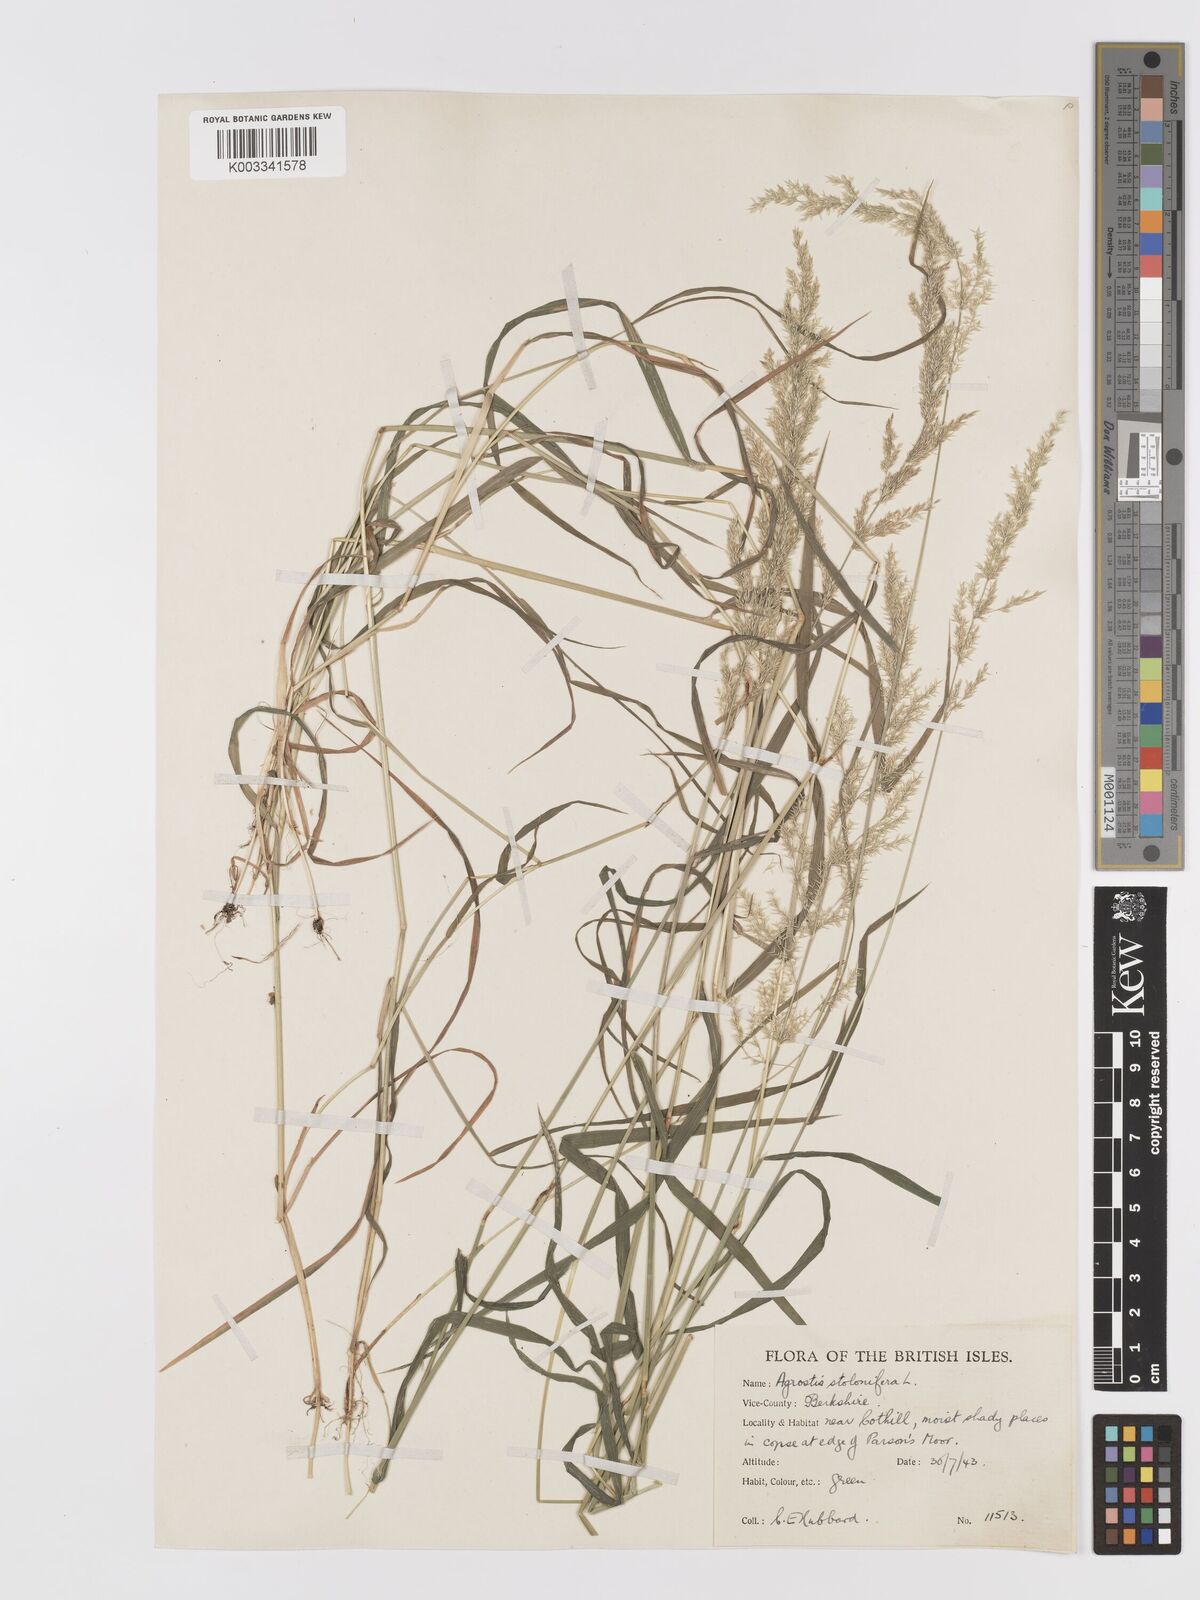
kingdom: Plantae
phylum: Tracheophyta
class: Liliopsida
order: Poales
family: Poaceae
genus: Agrostis
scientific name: Agrostis stolonifera
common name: Creeping bentgrass
